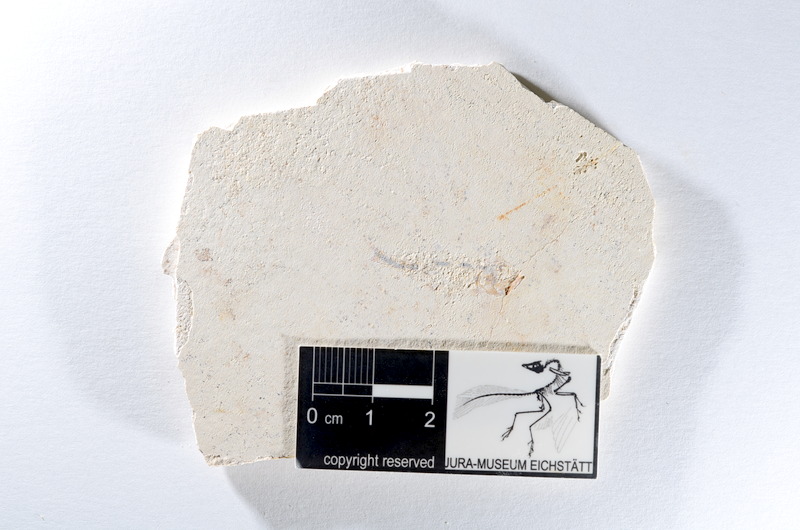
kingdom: Animalia
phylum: Chordata
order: Salmoniformes
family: Orthogonikleithridae
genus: Orthogonikleithrus
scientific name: Orthogonikleithrus hoelli
